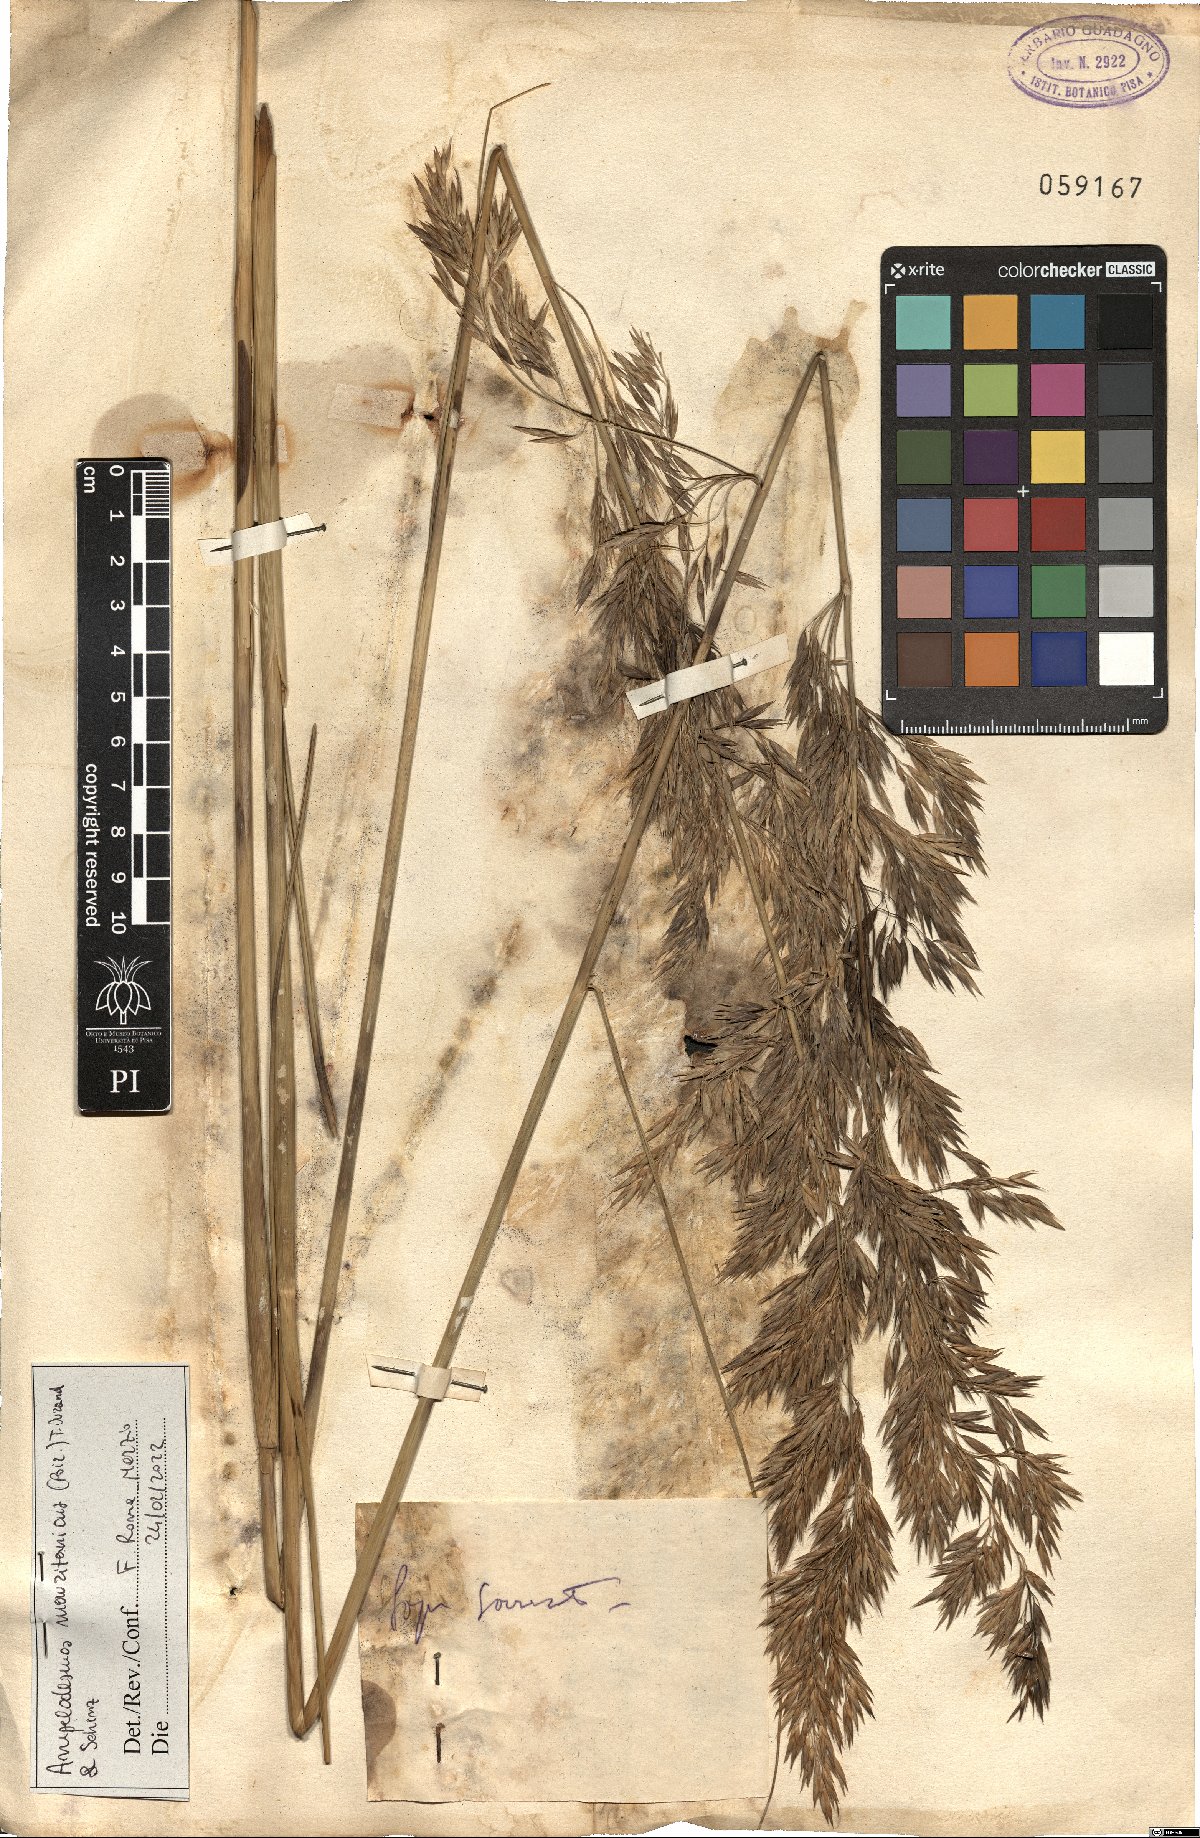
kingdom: Plantae
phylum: Tracheophyta
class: Liliopsida
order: Poales
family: Poaceae
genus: Ampelodesmos
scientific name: Ampelodesmos mauritanicus
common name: Mauritanian grass
